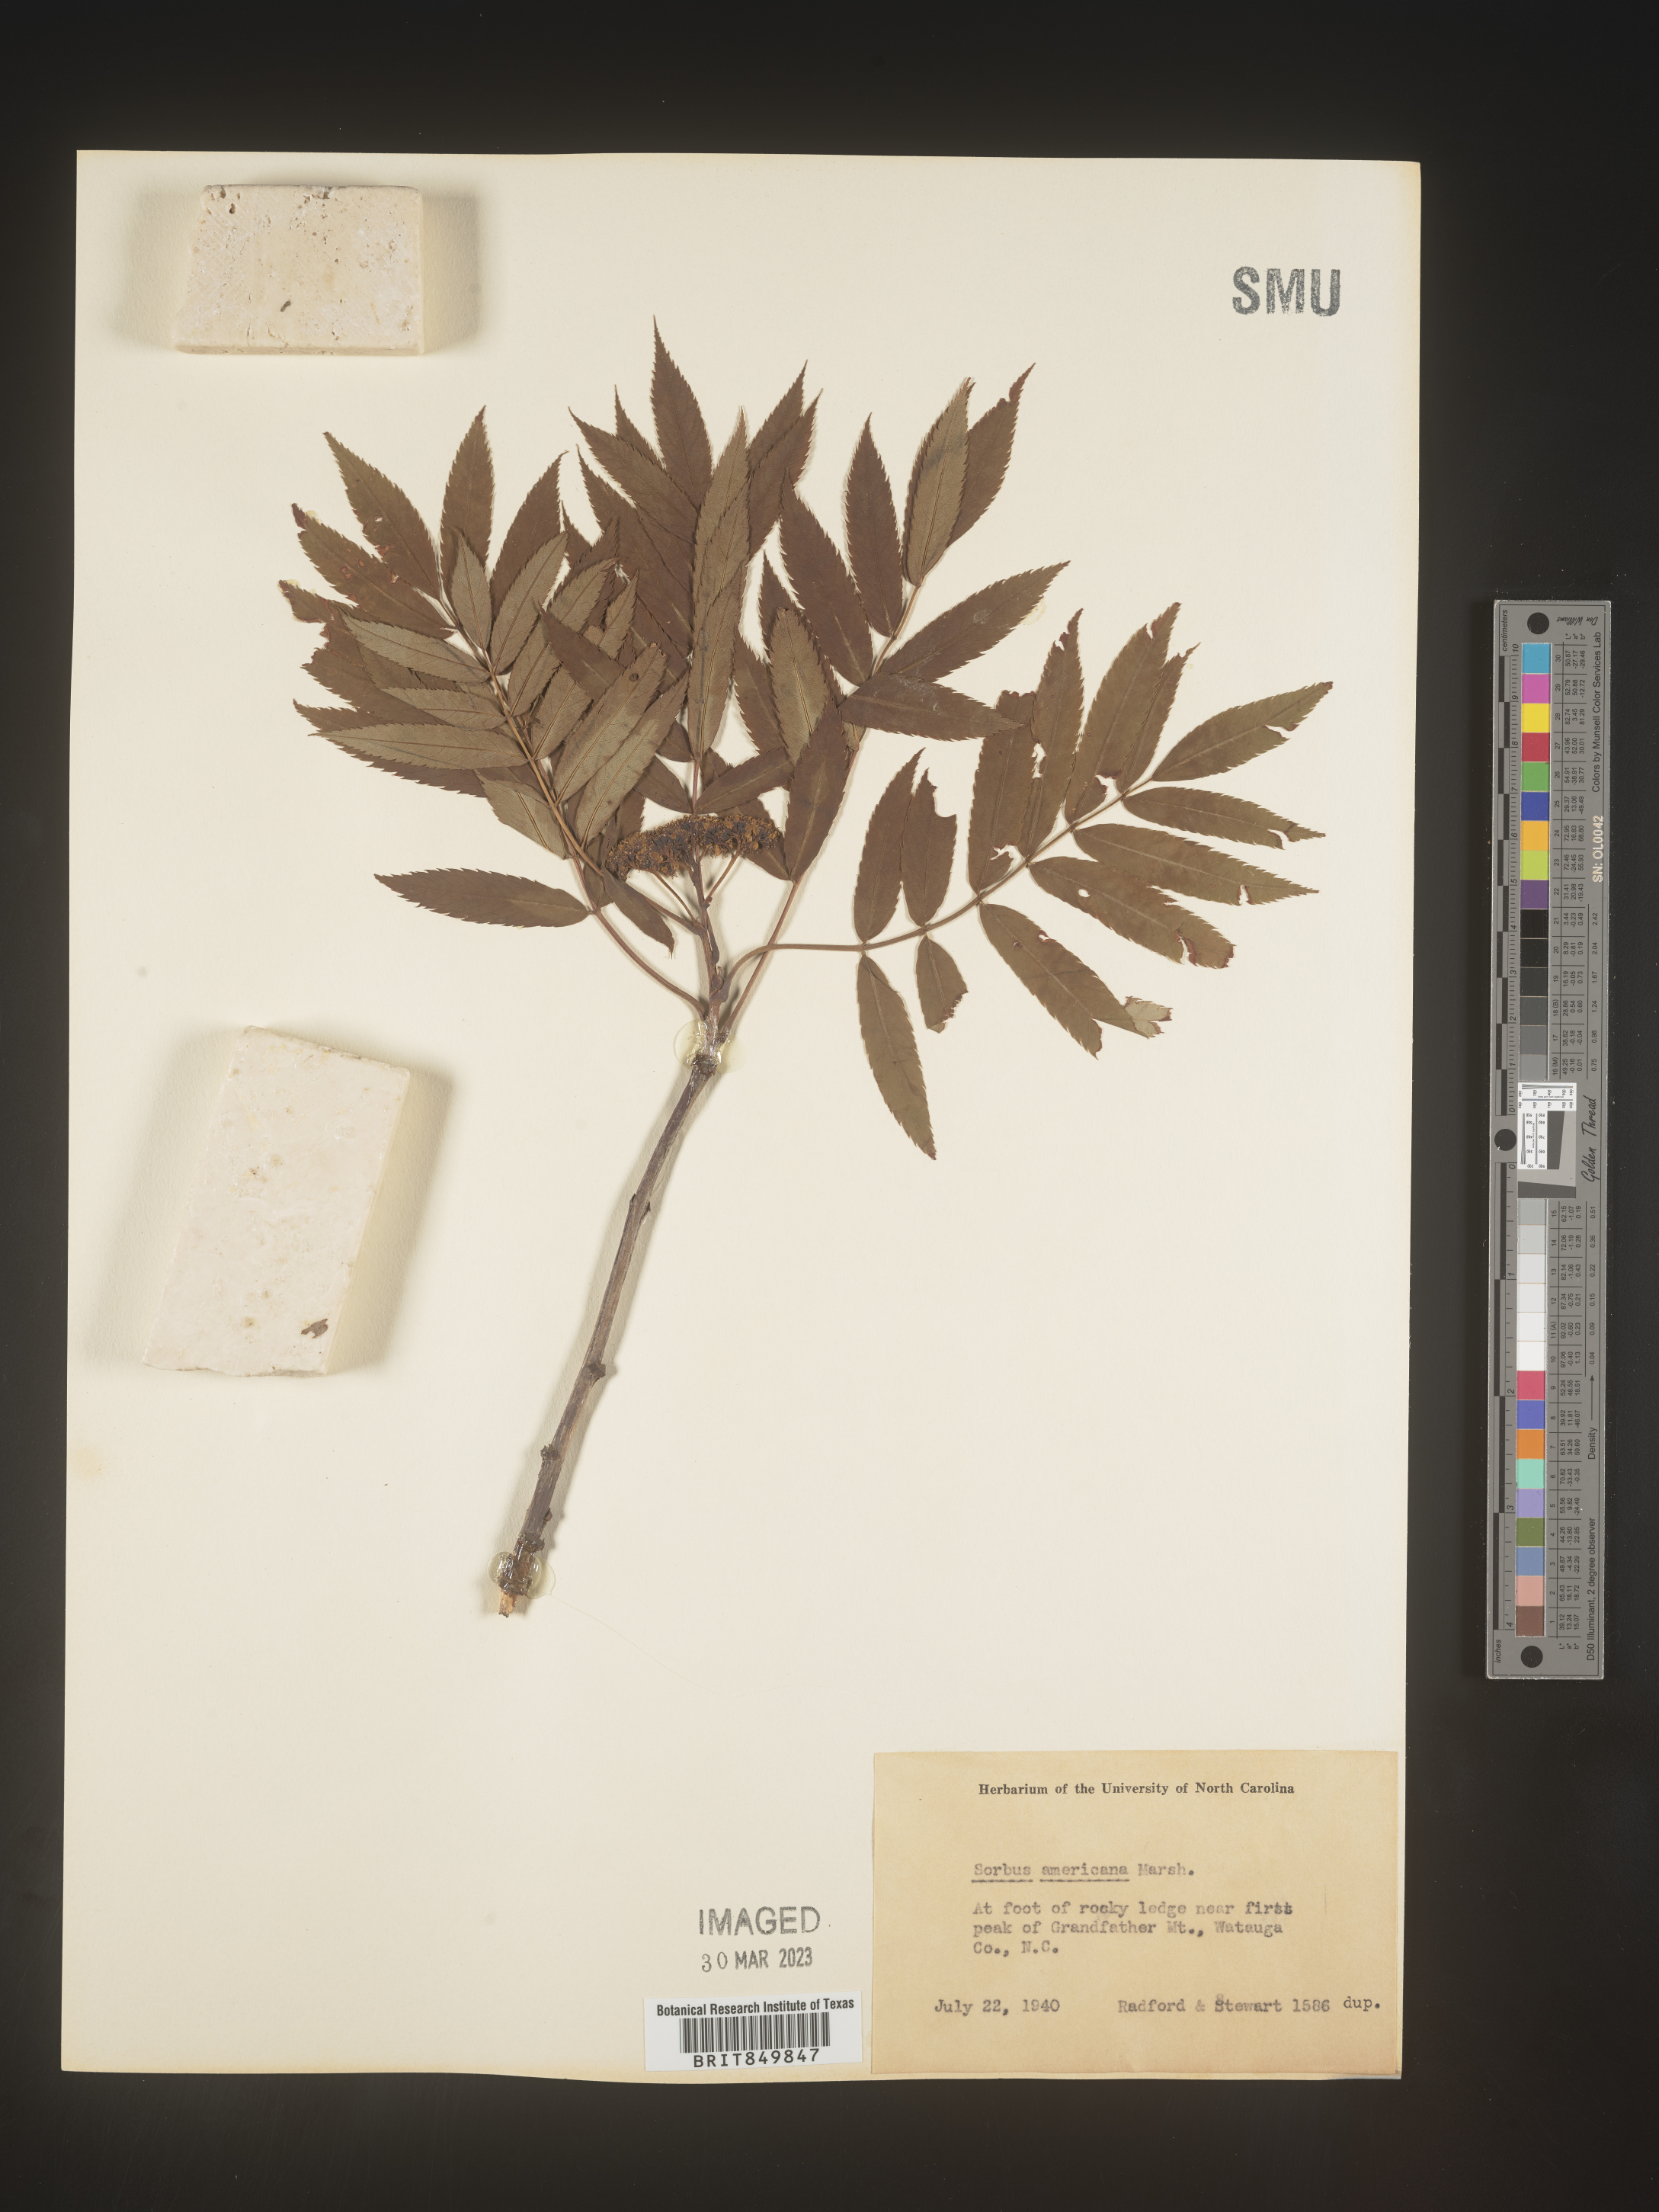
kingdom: Plantae
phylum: Tracheophyta
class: Magnoliopsida
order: Rosales
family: Rosaceae
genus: Sorbus
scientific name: Sorbus
